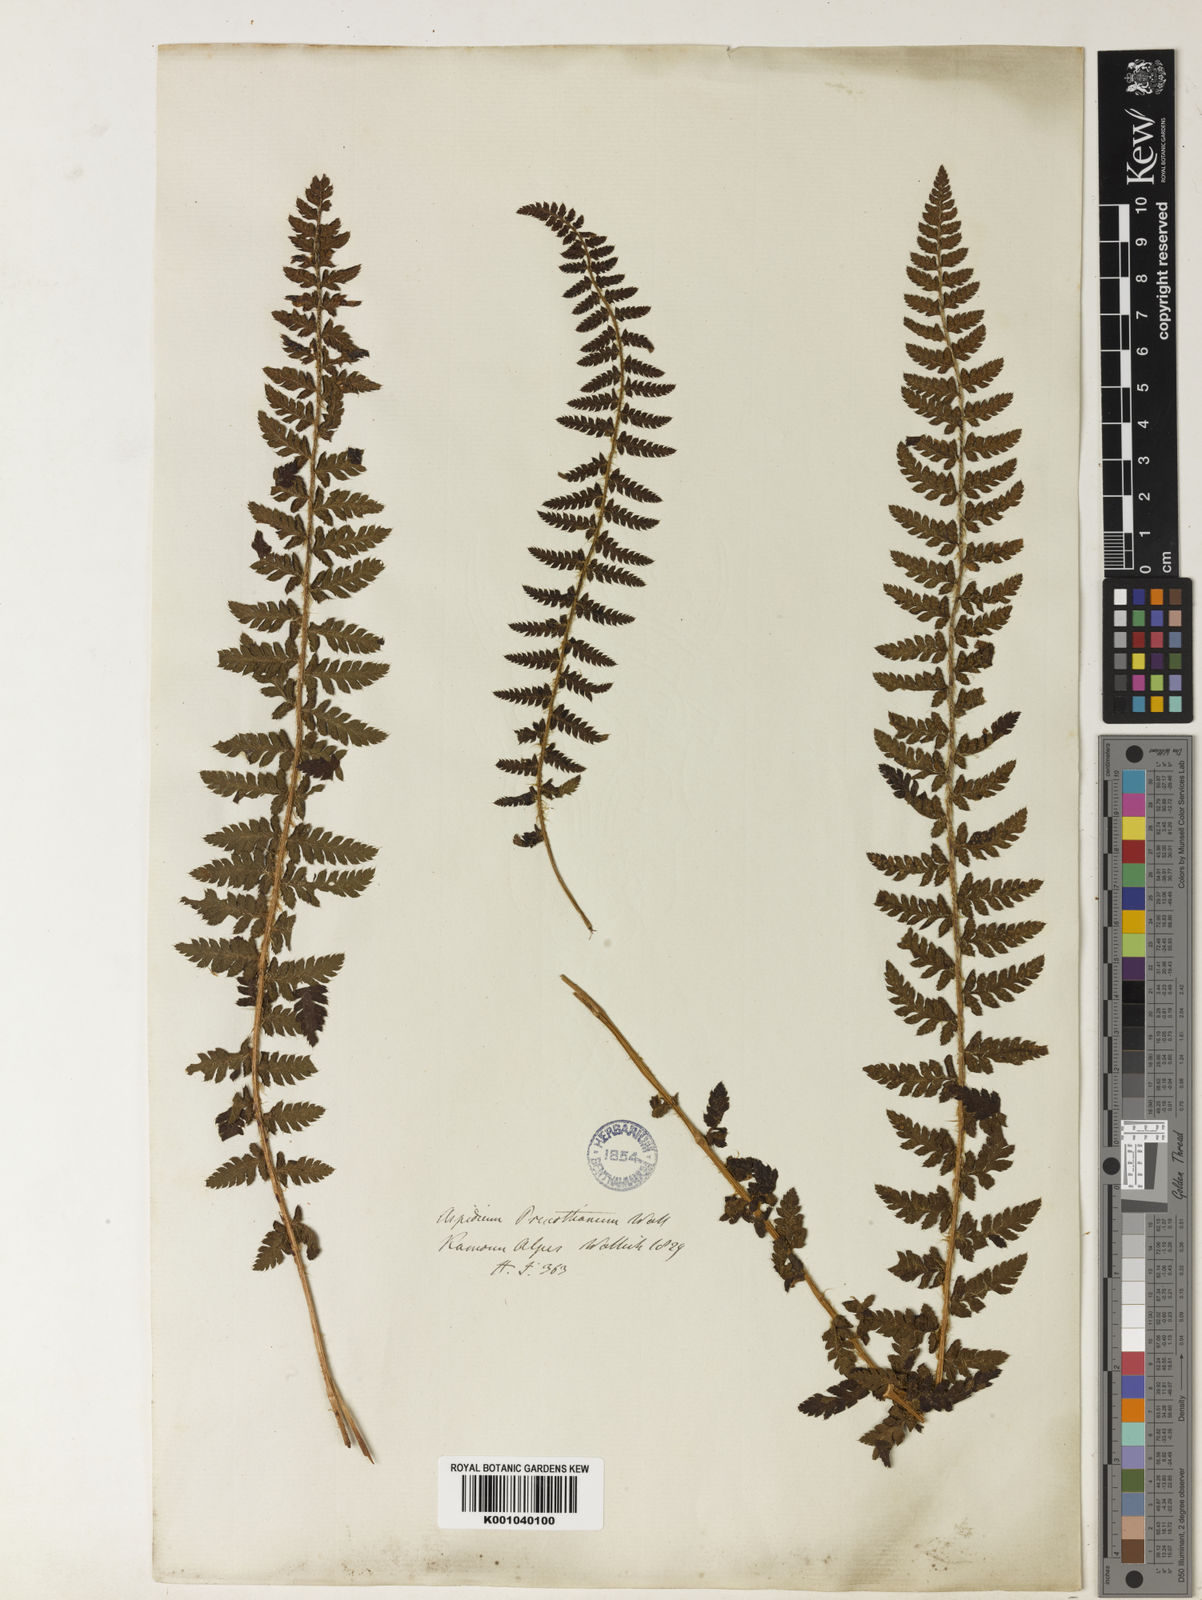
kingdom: Plantae
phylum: Tracheophyta
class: Polypodiopsida
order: Polypodiales
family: Dryopteridaceae
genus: Polystichum
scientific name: Polystichum prescottianum
